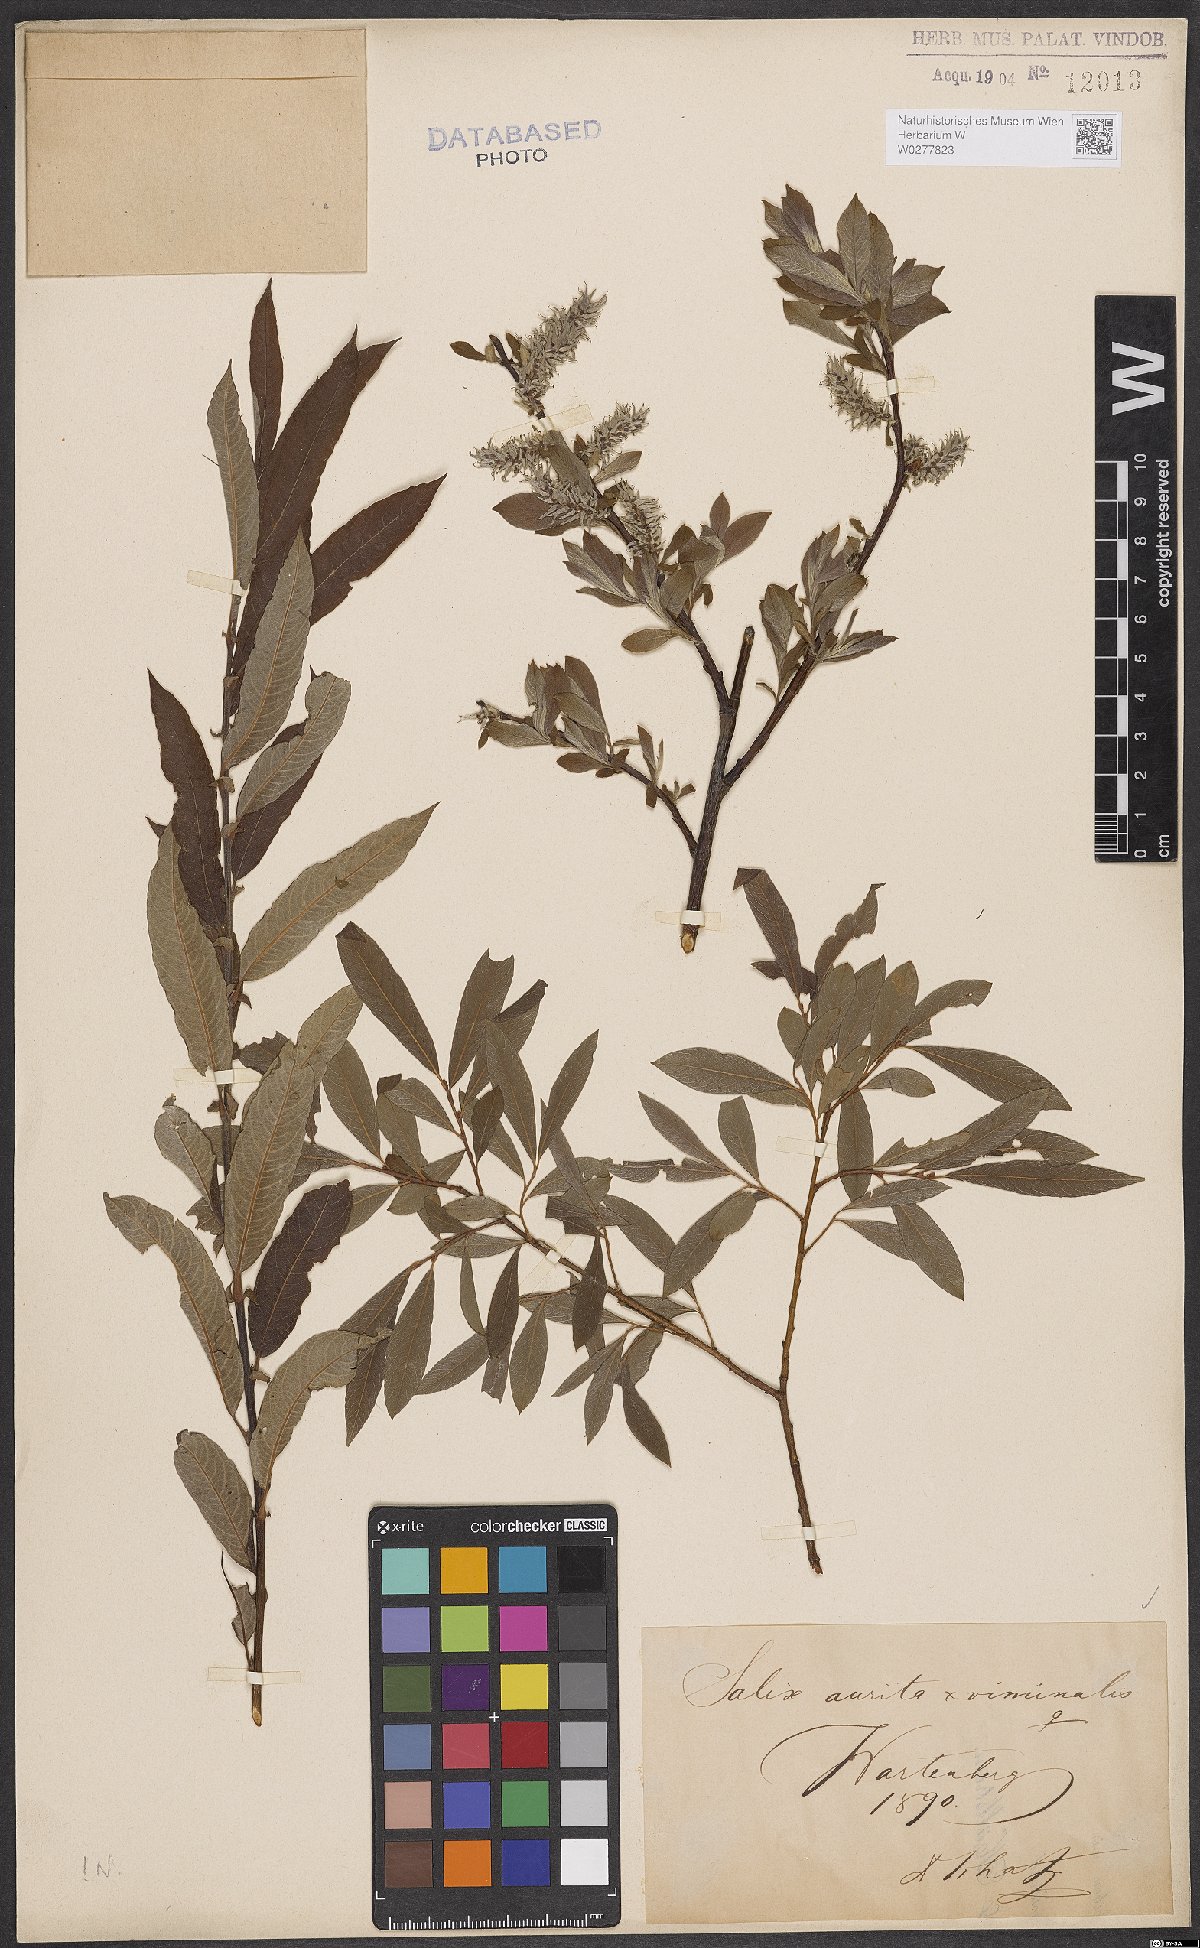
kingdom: Plantae
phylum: Tracheophyta
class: Magnoliopsida
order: Malpighiales
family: Salicaceae
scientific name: Salicaceae
